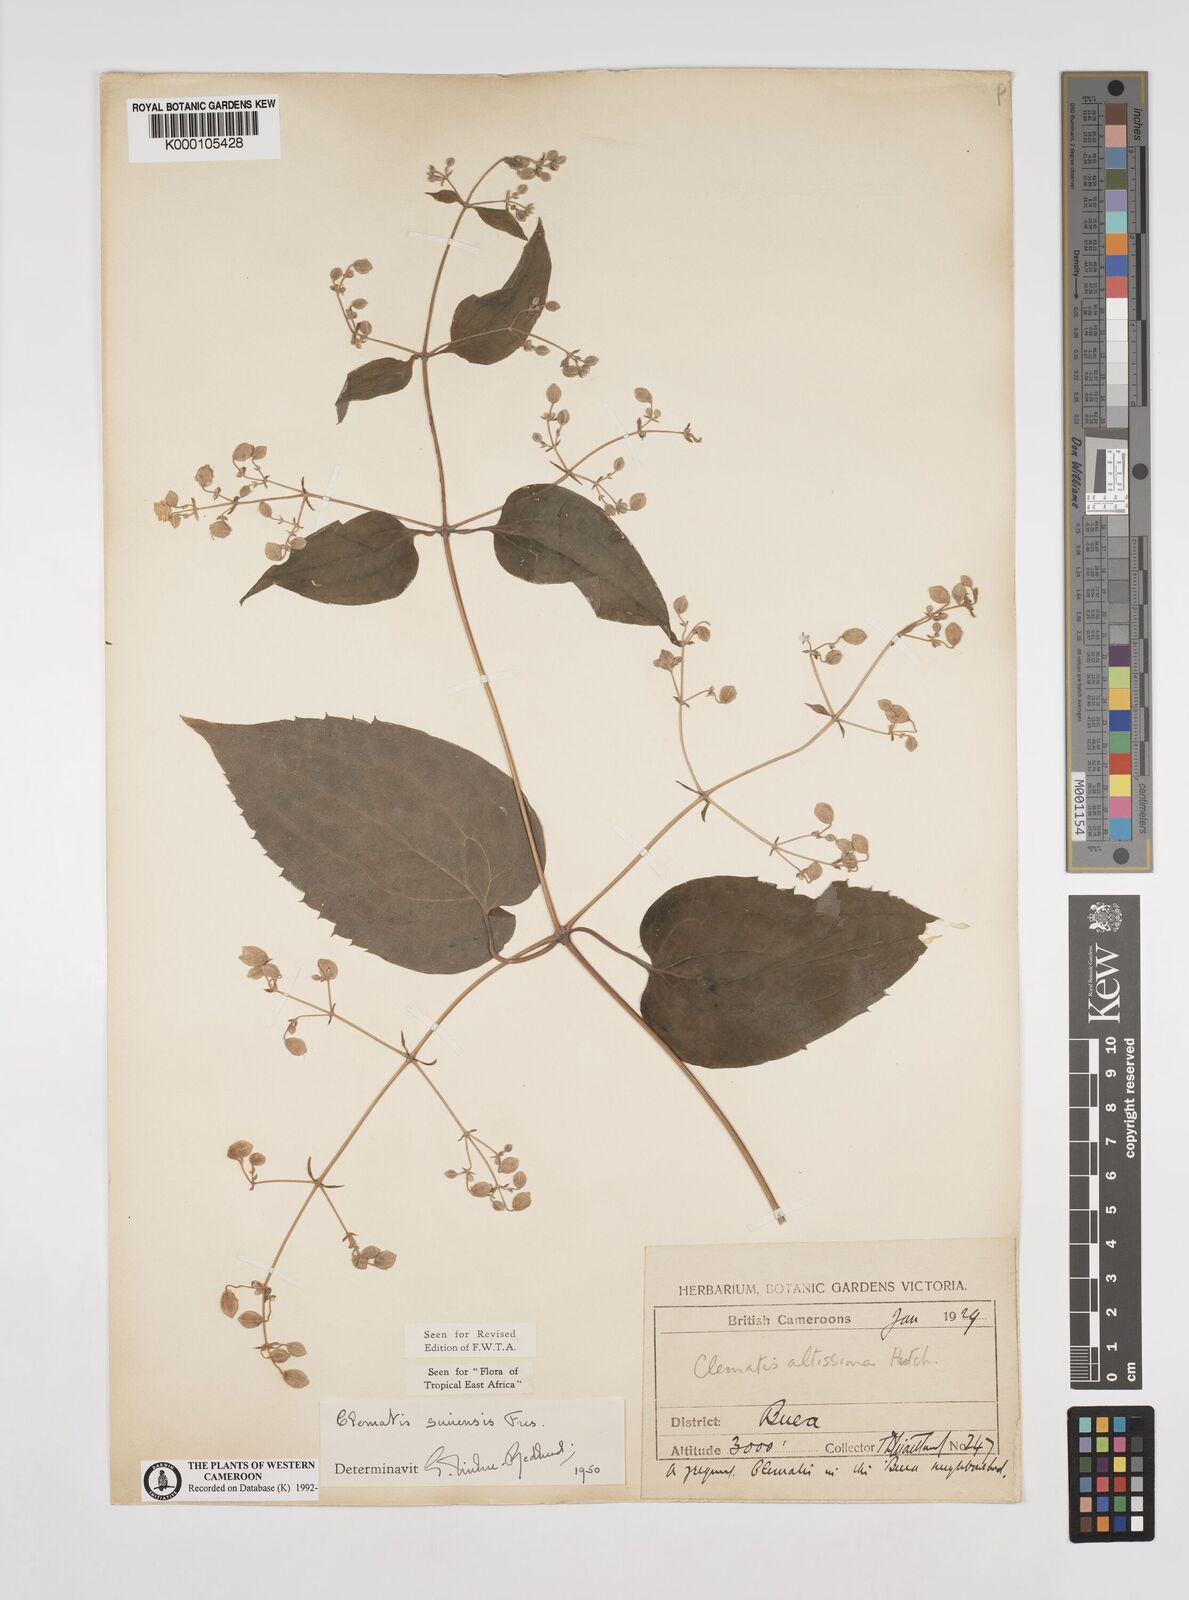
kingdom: Plantae
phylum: Tracheophyta
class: Magnoliopsida
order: Ranunculales
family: Ranunculaceae
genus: Clematis
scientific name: Clematis simensis
